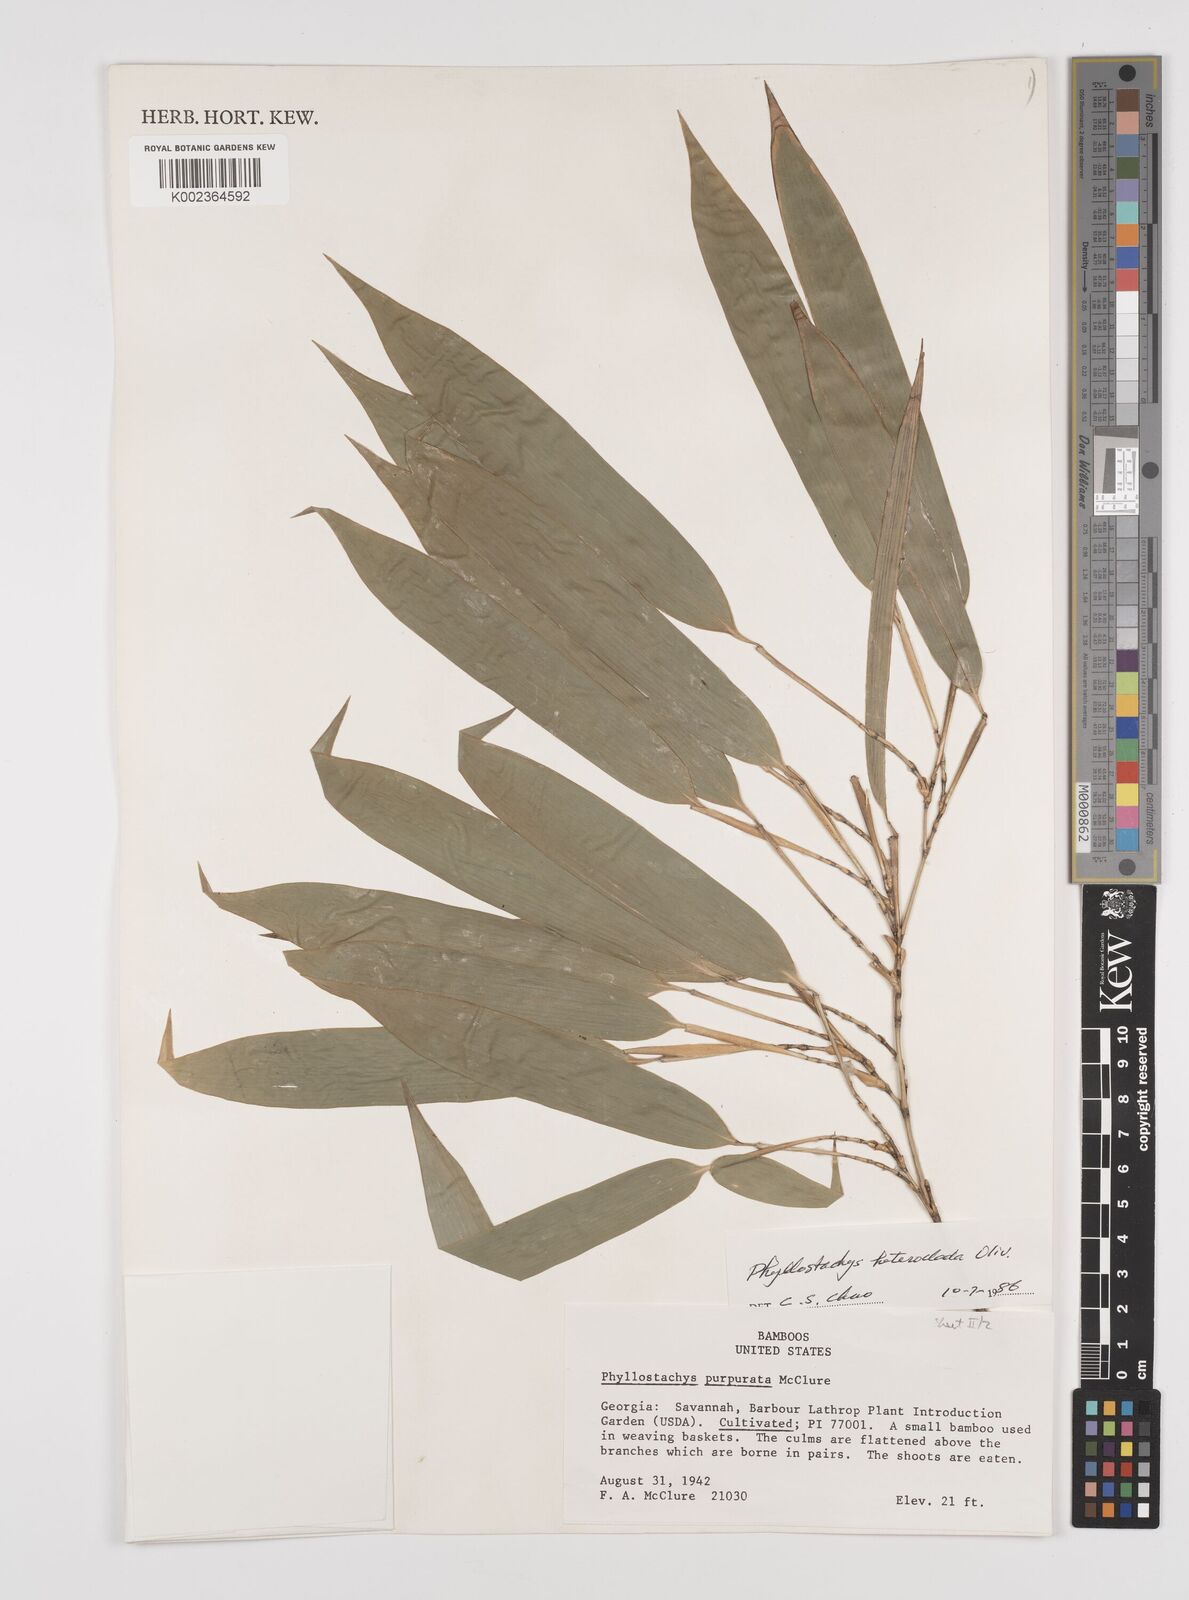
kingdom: Plantae
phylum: Tracheophyta
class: Liliopsida
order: Poales
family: Poaceae
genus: Phyllostachys
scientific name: Phyllostachys heteroclada
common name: Fishscale bamboo
